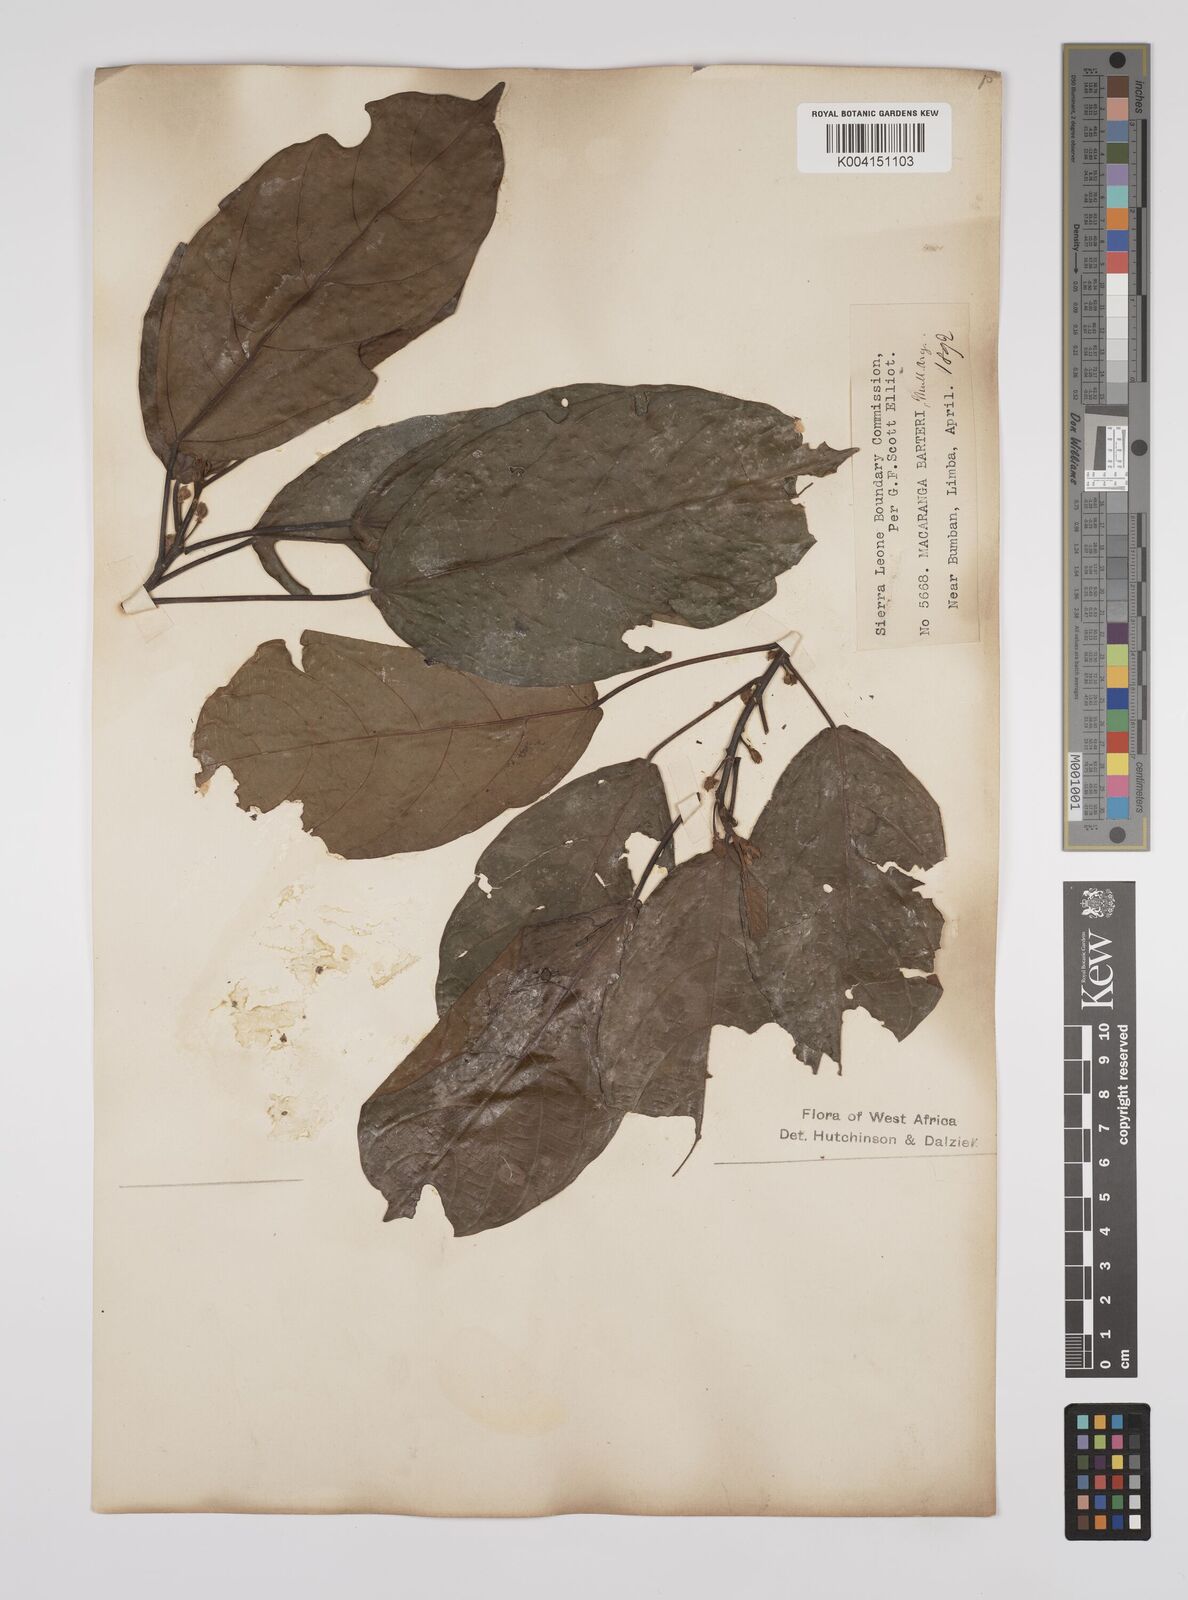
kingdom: Plantae
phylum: Tracheophyta
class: Magnoliopsida
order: Malpighiales
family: Euphorbiaceae
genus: Macaranga
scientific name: Macaranga barteri
